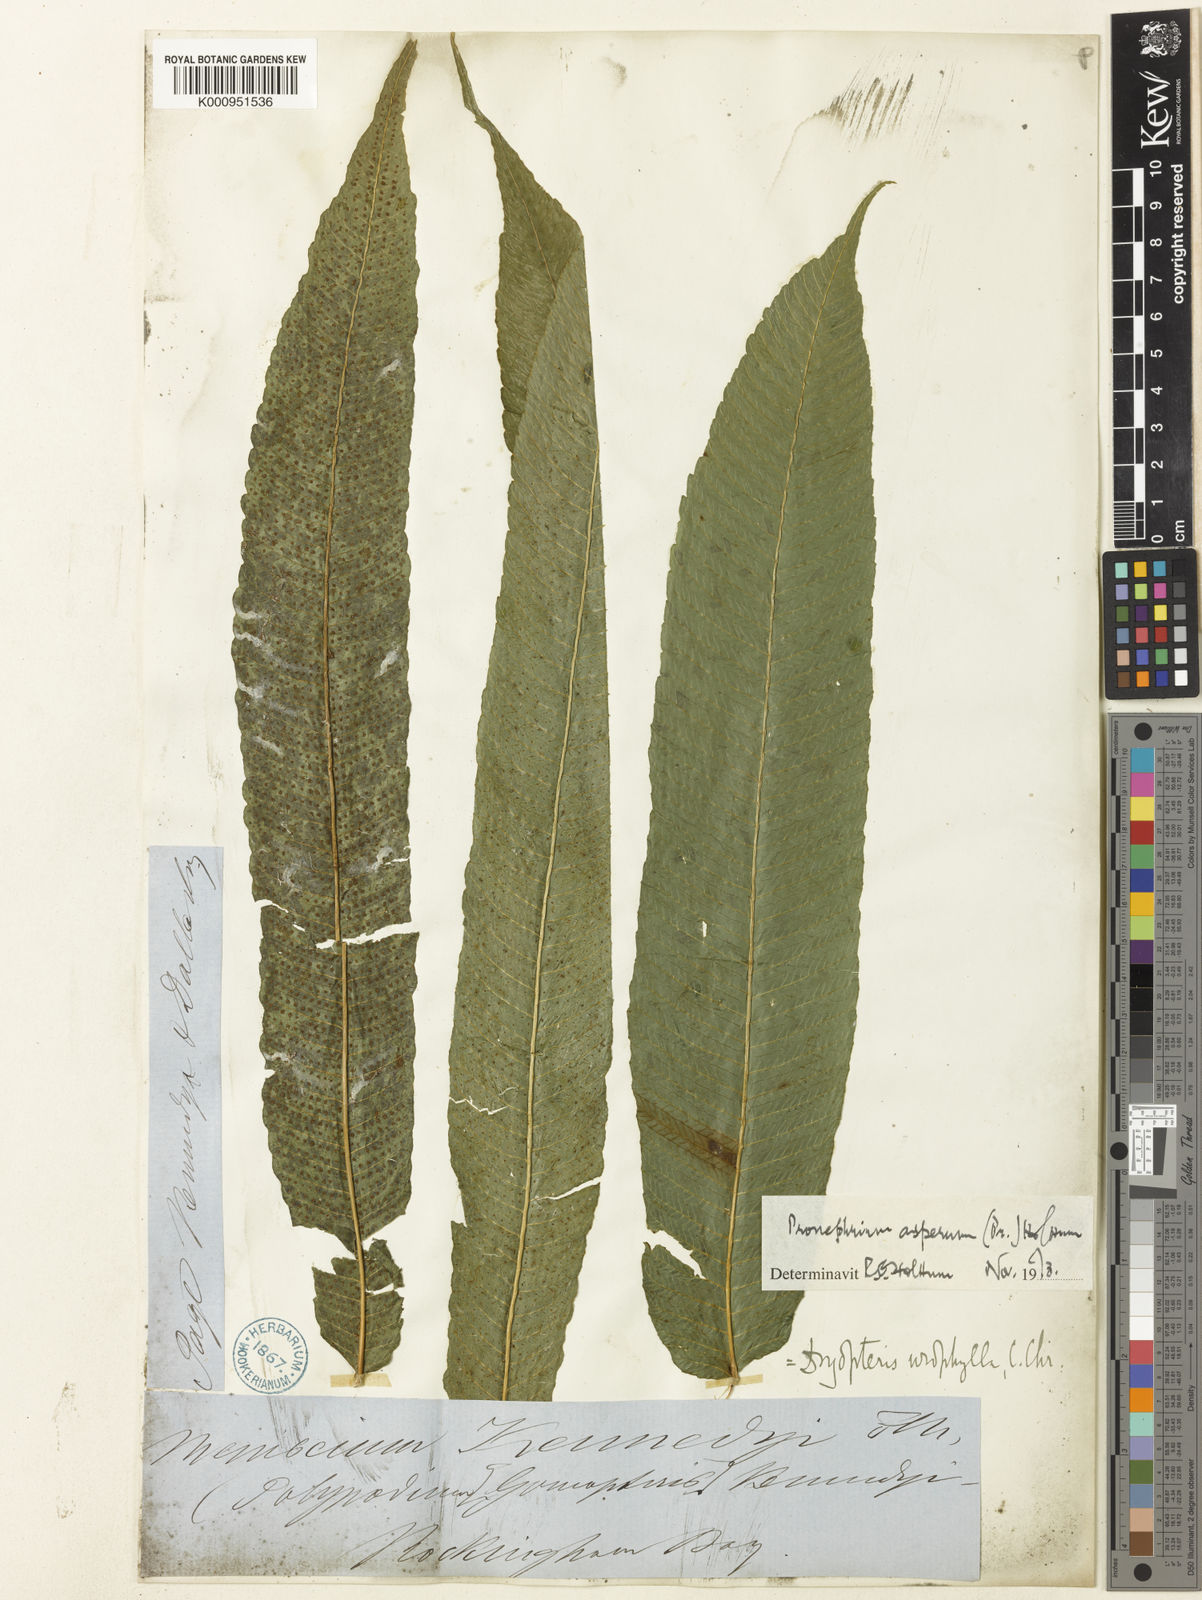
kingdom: Plantae
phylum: Tracheophyta
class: Polypodiopsida
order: Polypodiales
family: Thelypteridaceae
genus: Abacopteris
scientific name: Abacopteris aspera
